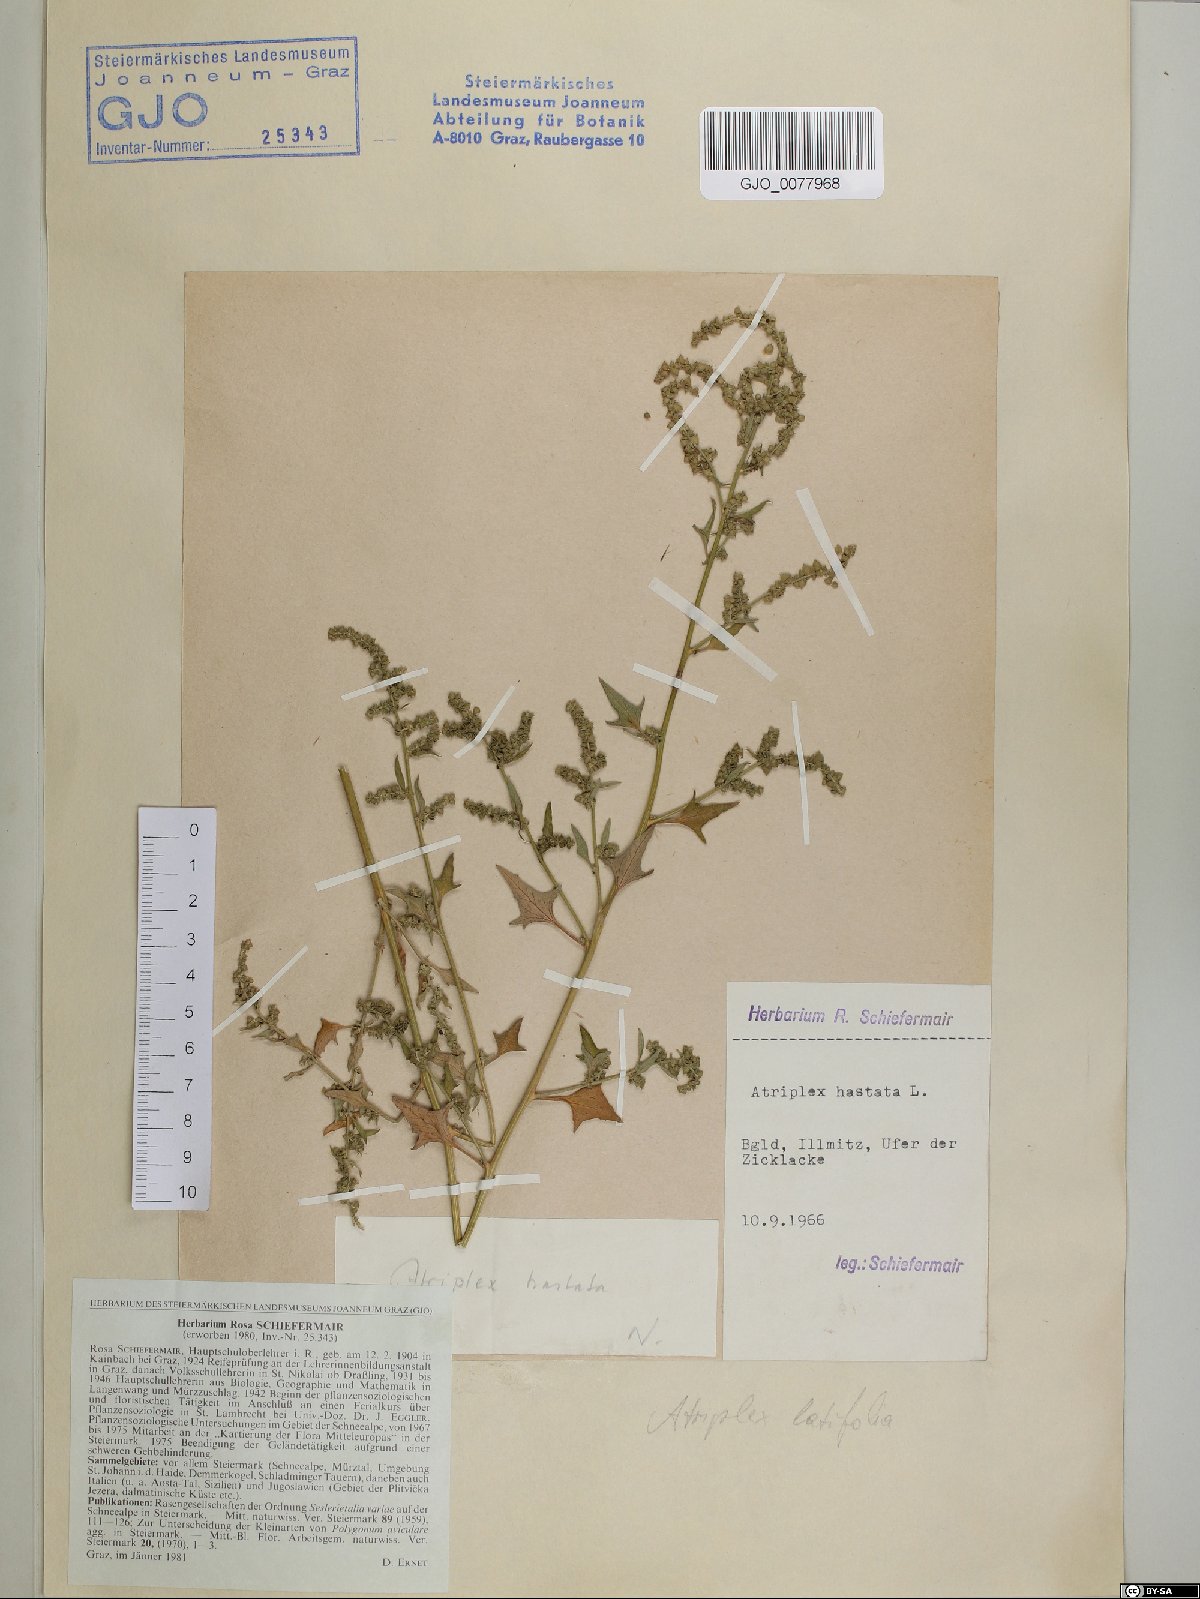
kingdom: Plantae
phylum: Tracheophyta
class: Magnoliopsida
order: Caryophyllales
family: Amaranthaceae
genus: Atriplex
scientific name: Atriplex calotheca
